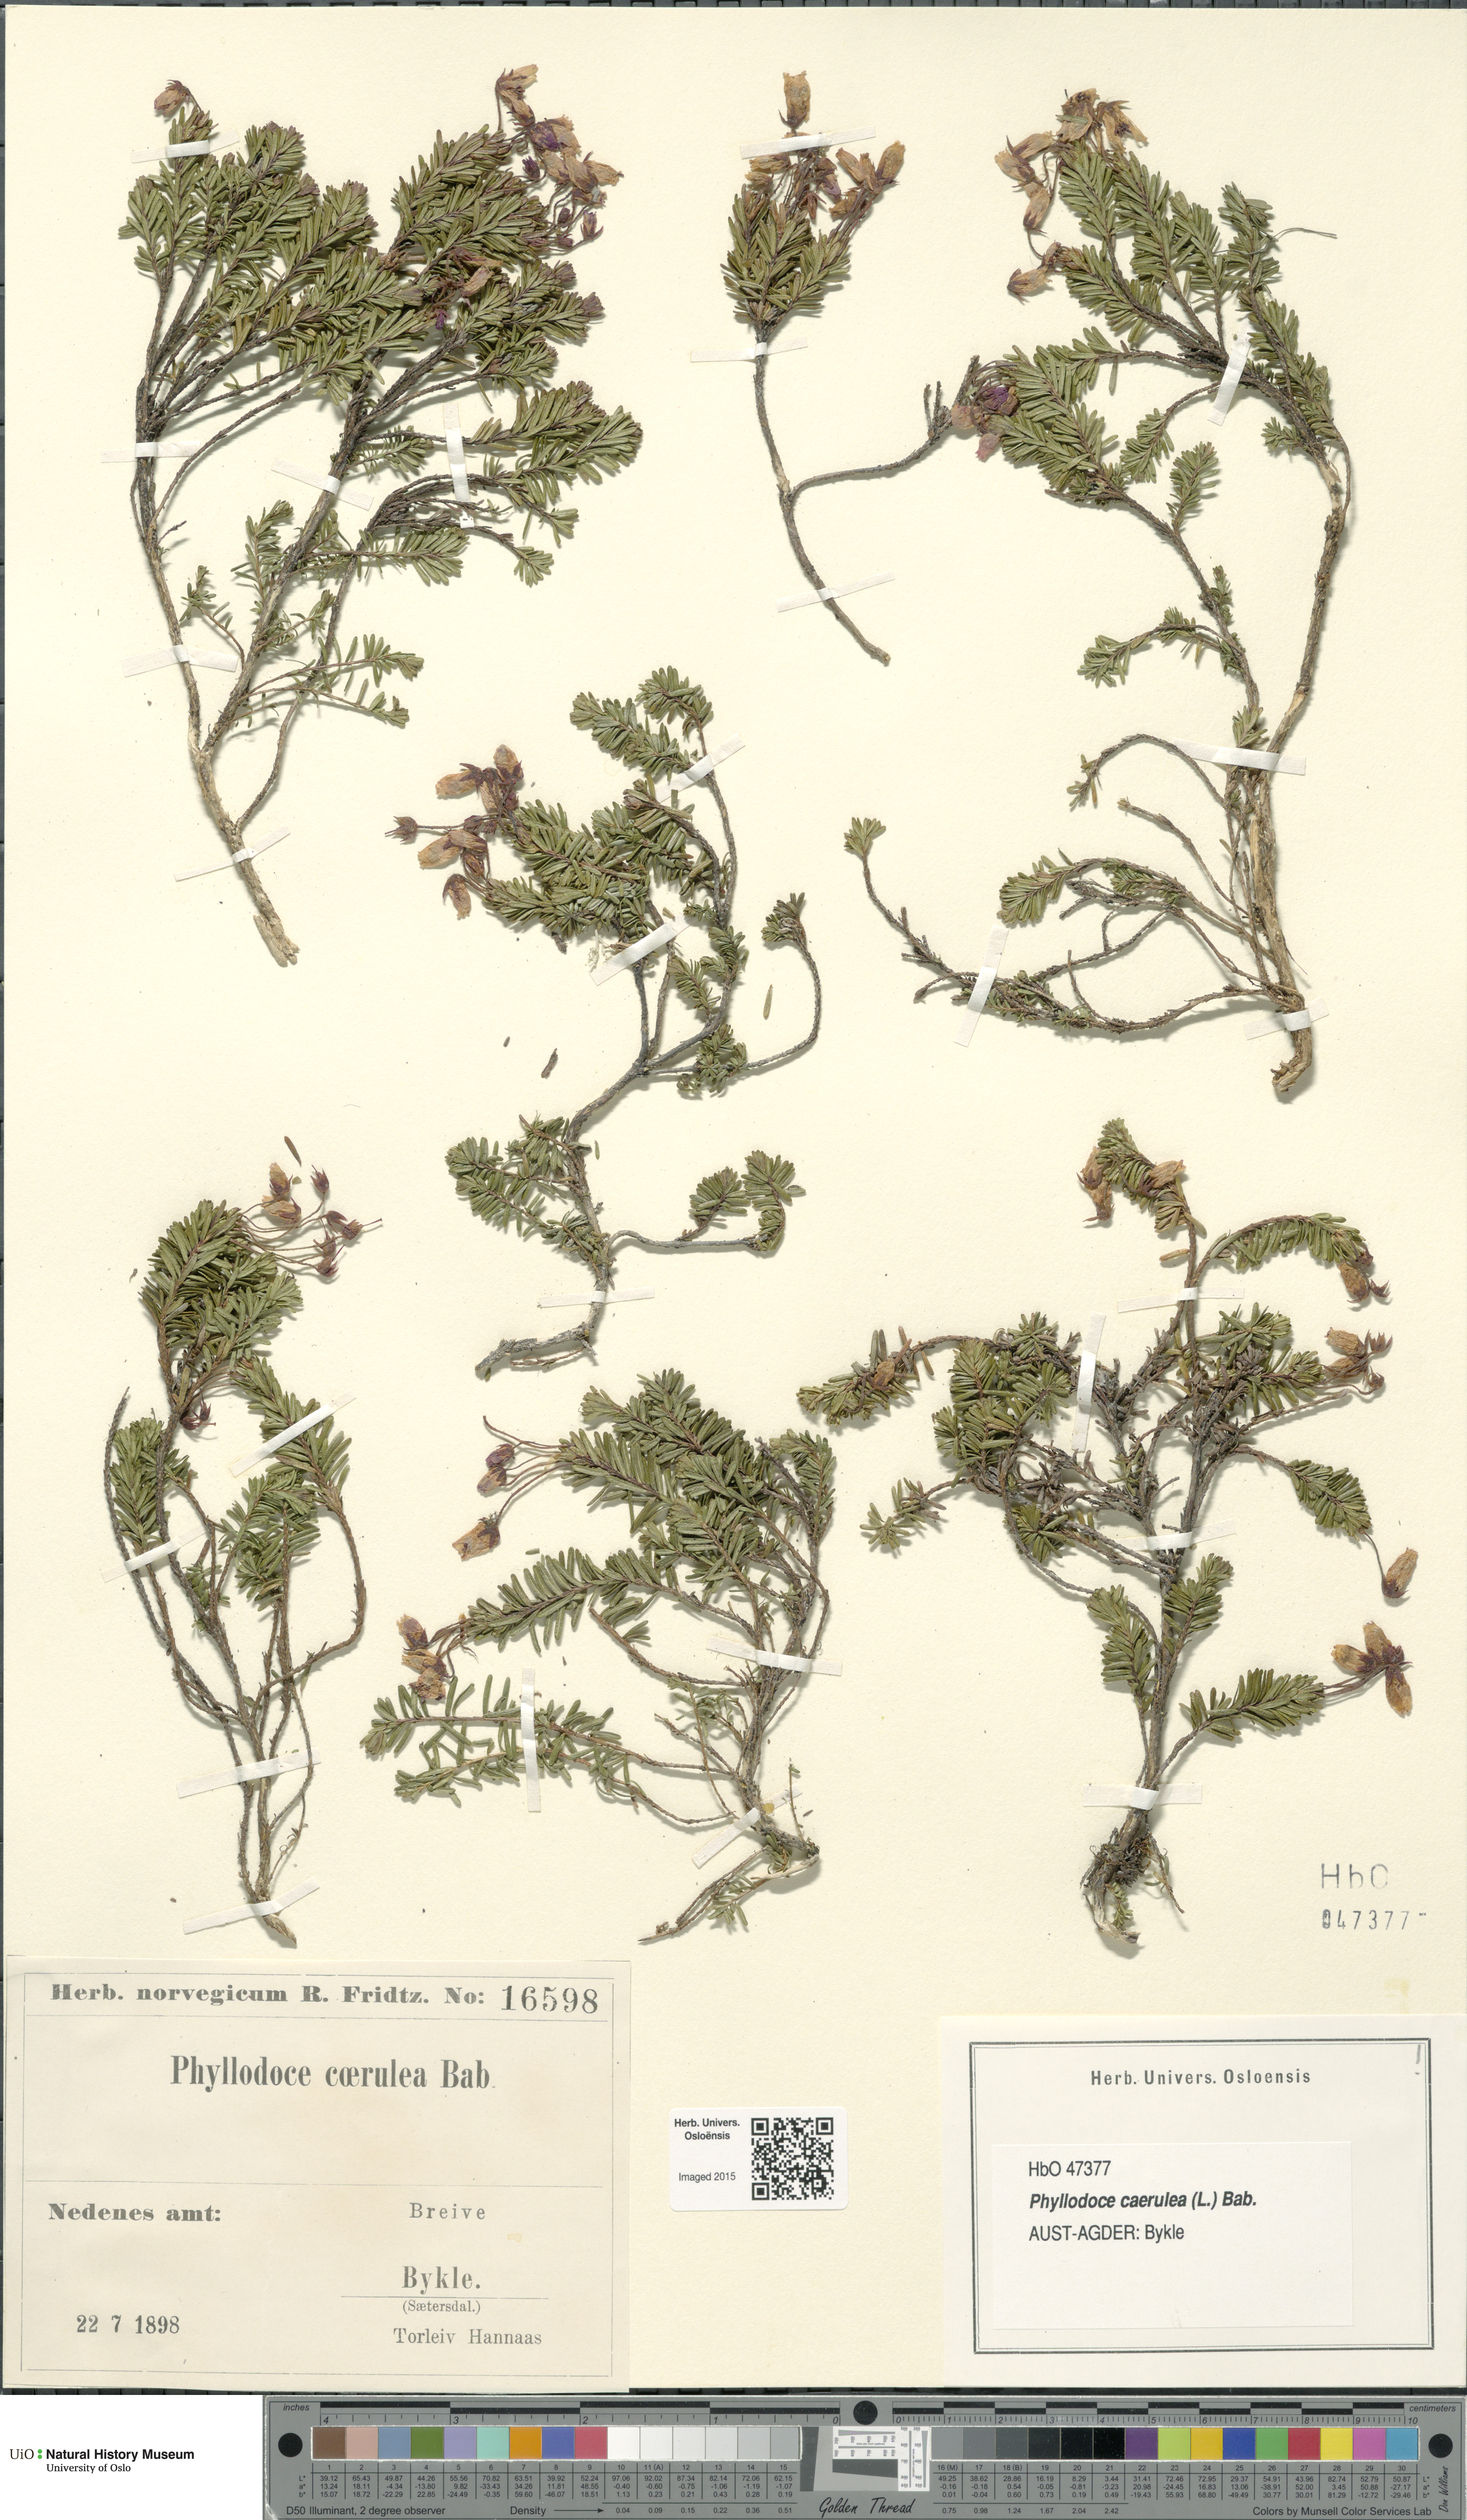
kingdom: Plantae
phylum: Tracheophyta
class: Magnoliopsida
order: Ericales
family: Ericaceae
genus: Phyllodoce
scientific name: Phyllodoce caerulea
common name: Blue heath
